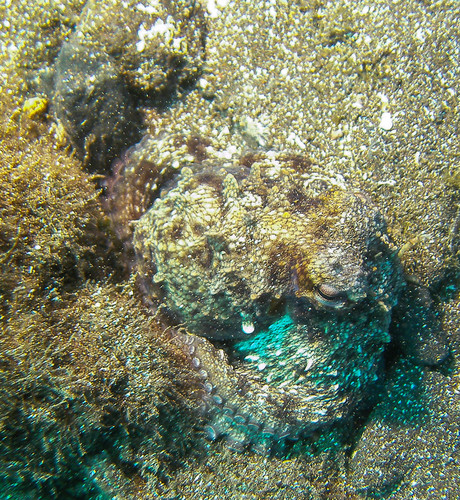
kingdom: Animalia
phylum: Mollusca
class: Cephalopoda
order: Octopoda
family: Octopodidae
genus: Octopus
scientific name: Octopus vulgaris
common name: Common octopus
